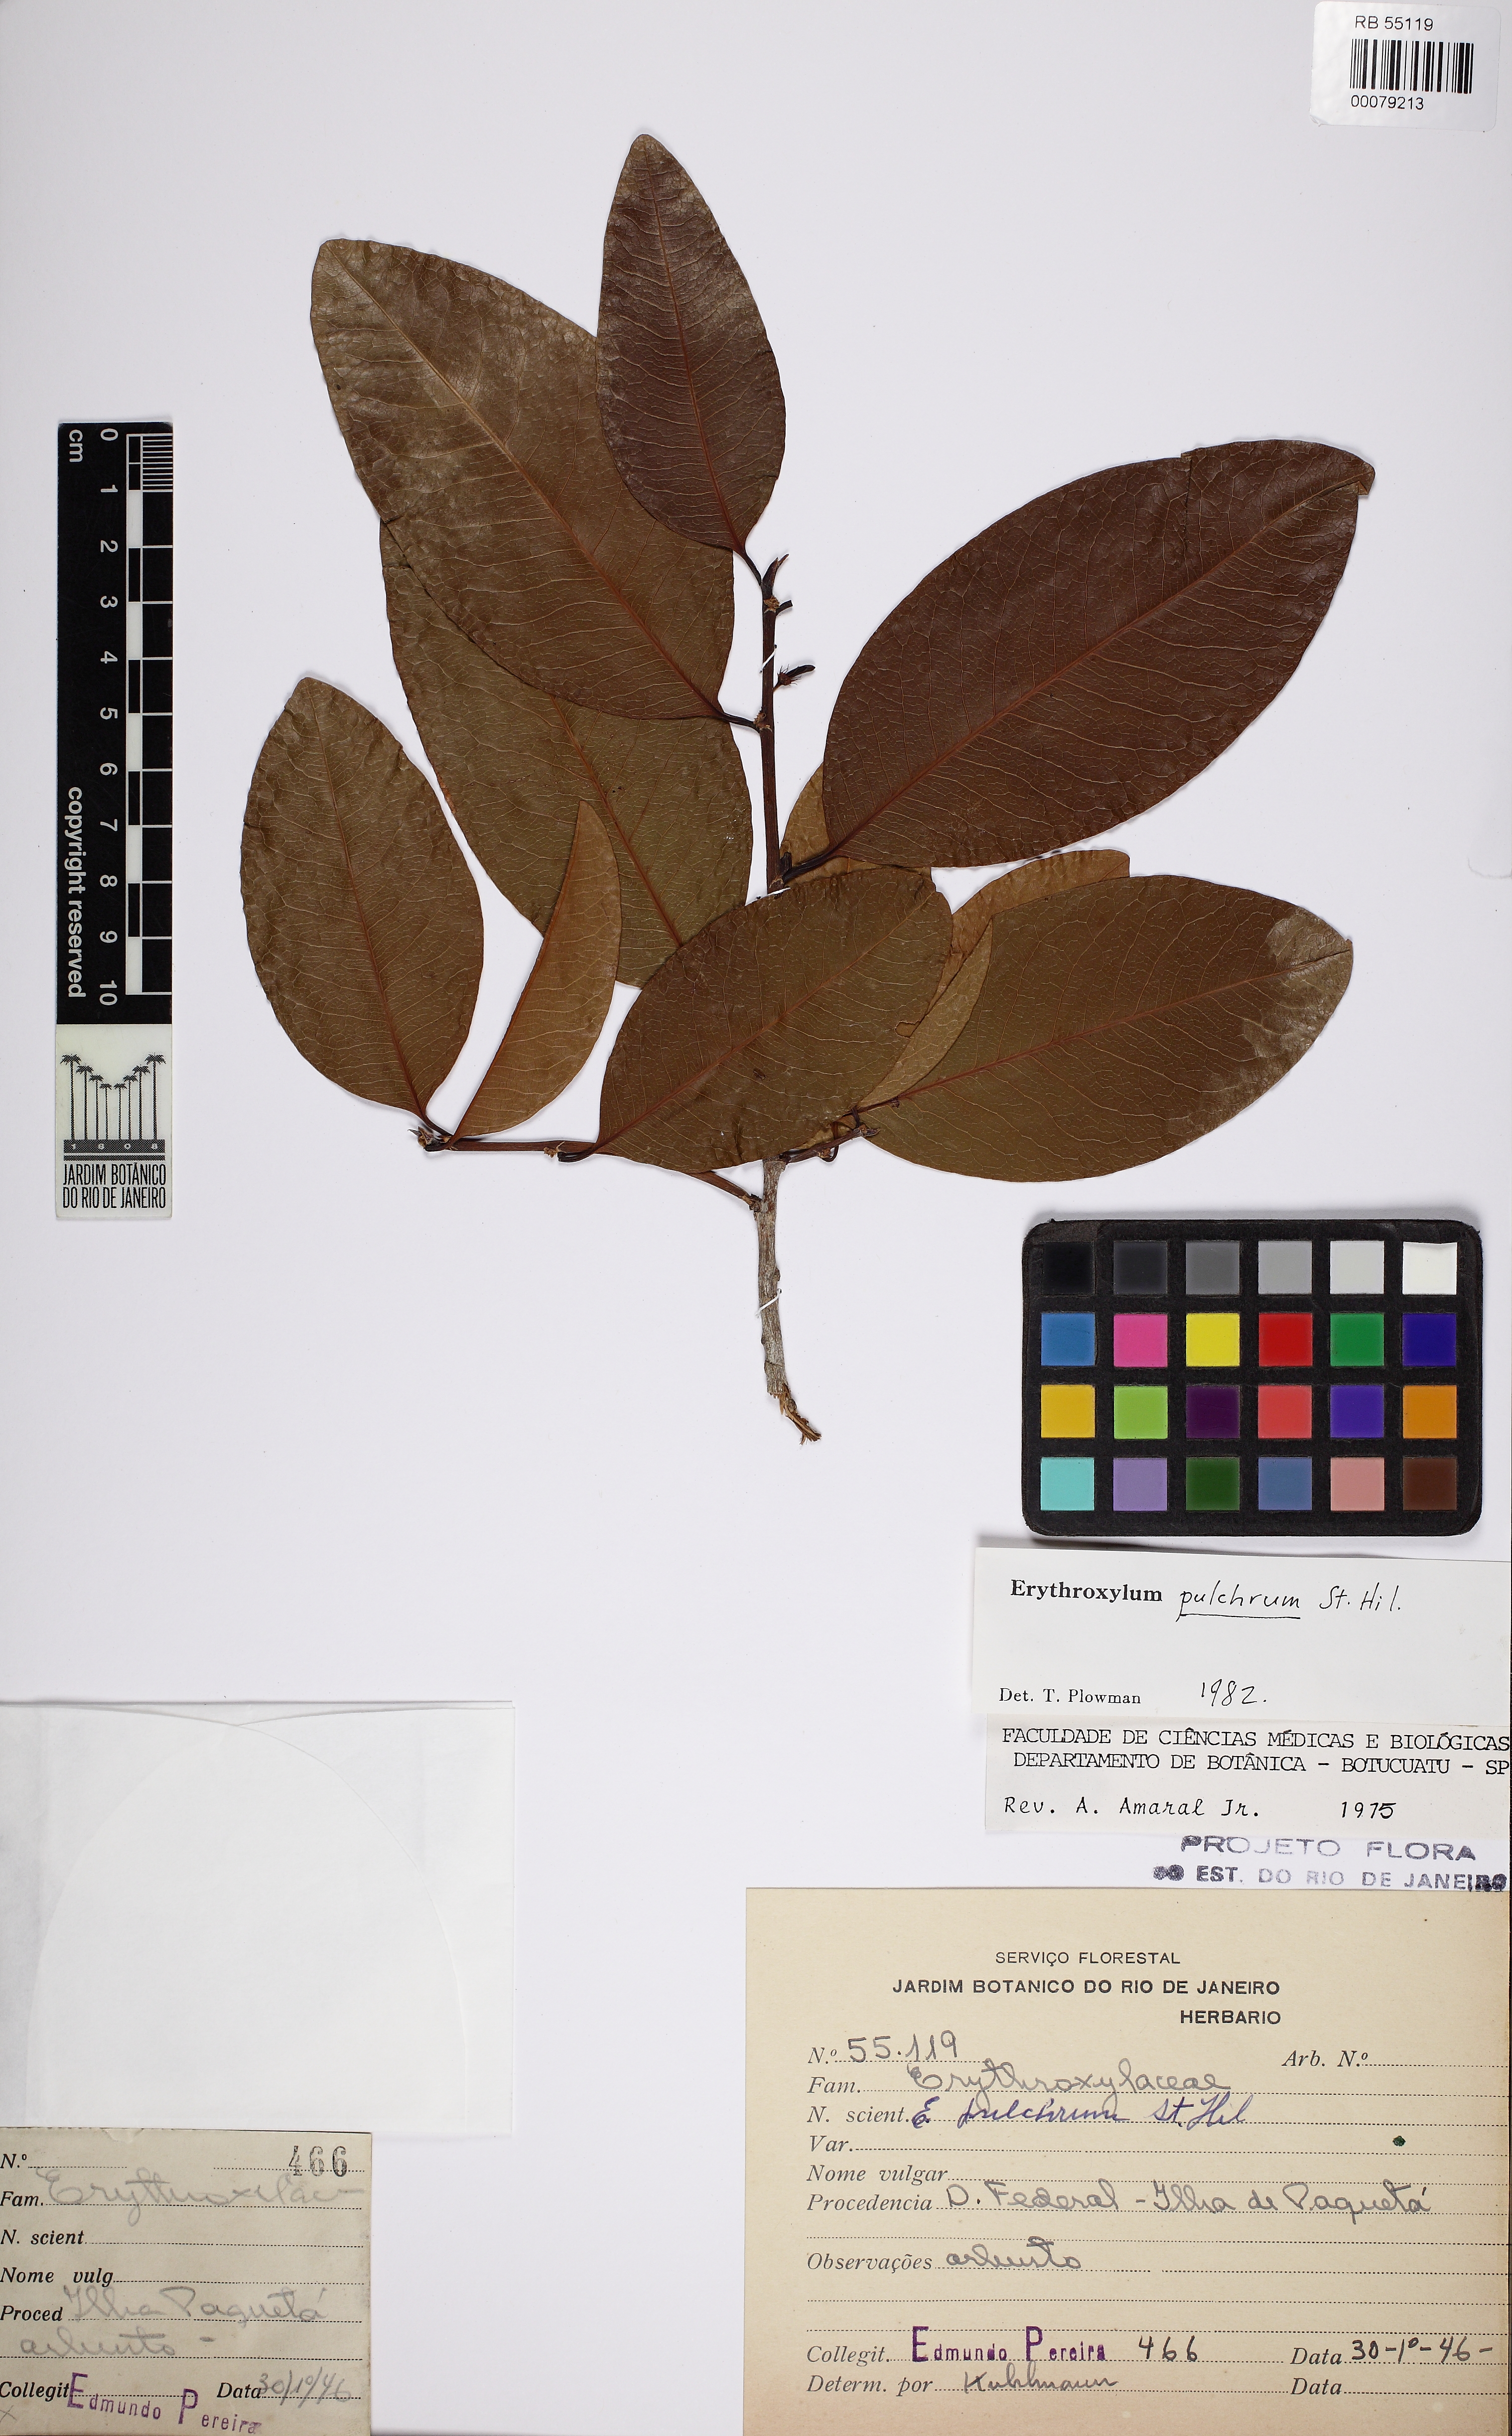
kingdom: Plantae
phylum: Tracheophyta
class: Magnoliopsida
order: Malpighiales
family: Erythroxylaceae
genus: Erythroxylum
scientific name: Erythroxylum pulchrum
